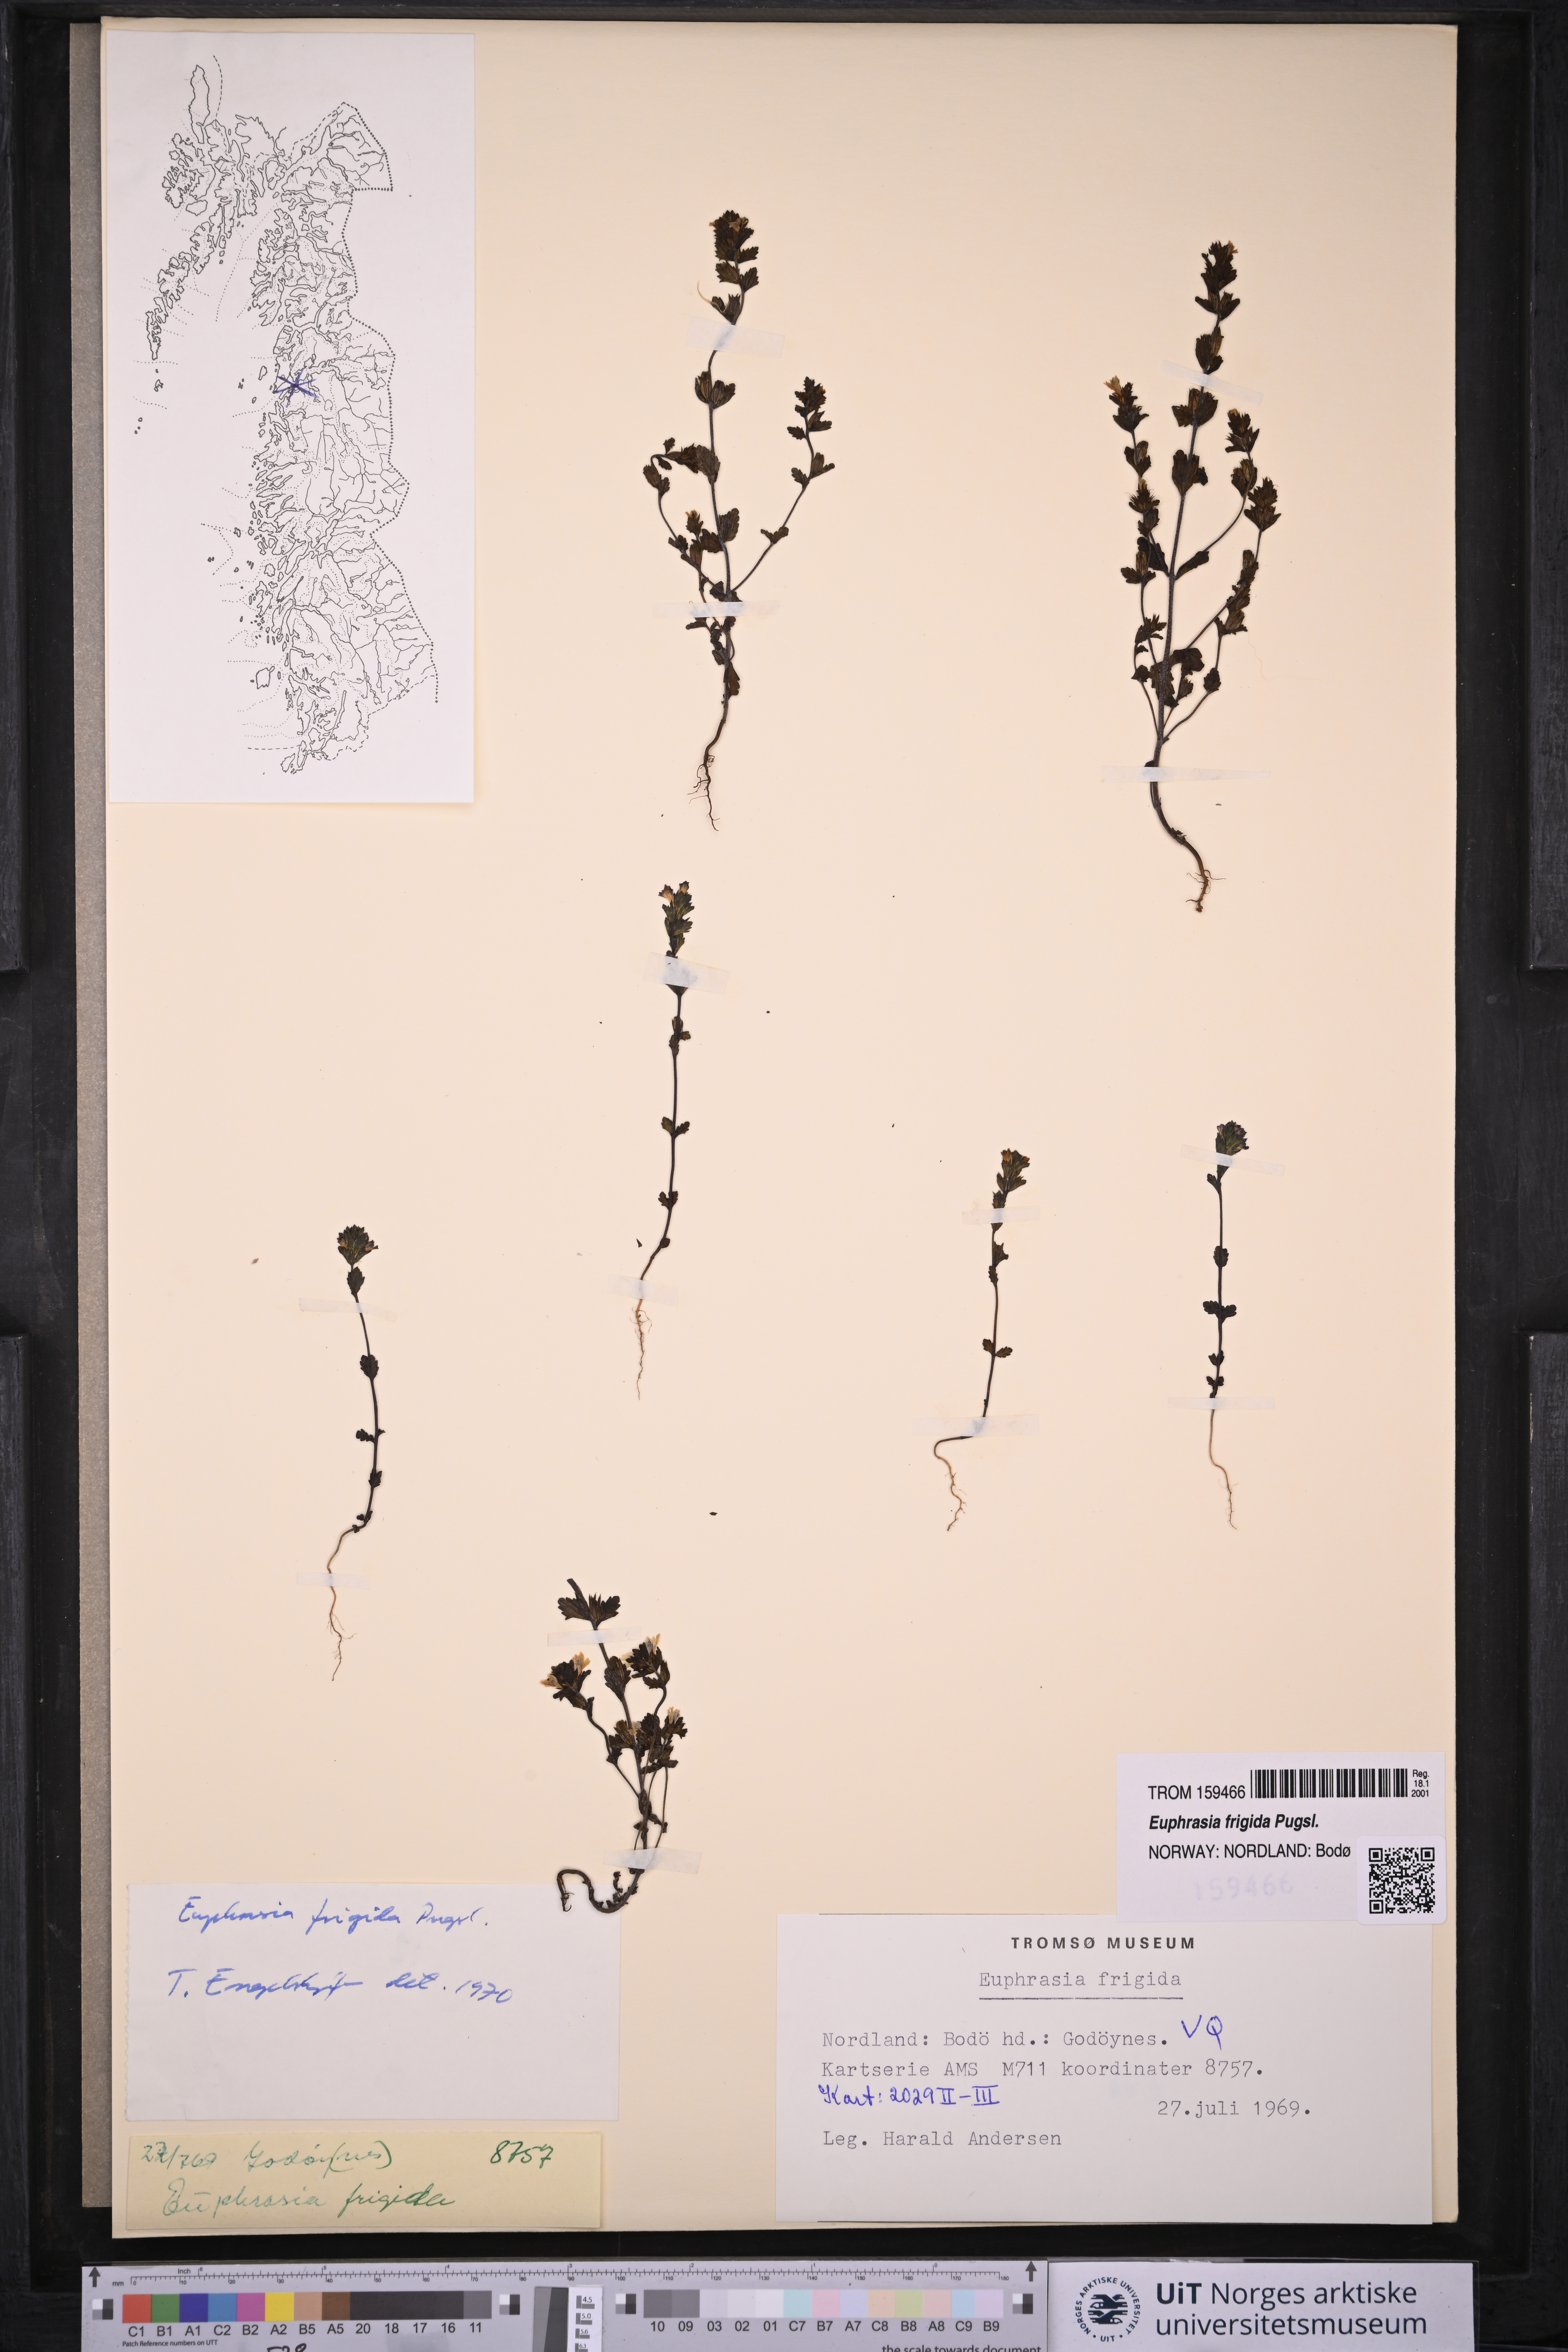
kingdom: Plantae
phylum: Tracheophyta
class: Magnoliopsida
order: Lamiales
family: Orobanchaceae
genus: Euphrasia
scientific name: Euphrasia frigida
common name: An eyebright
